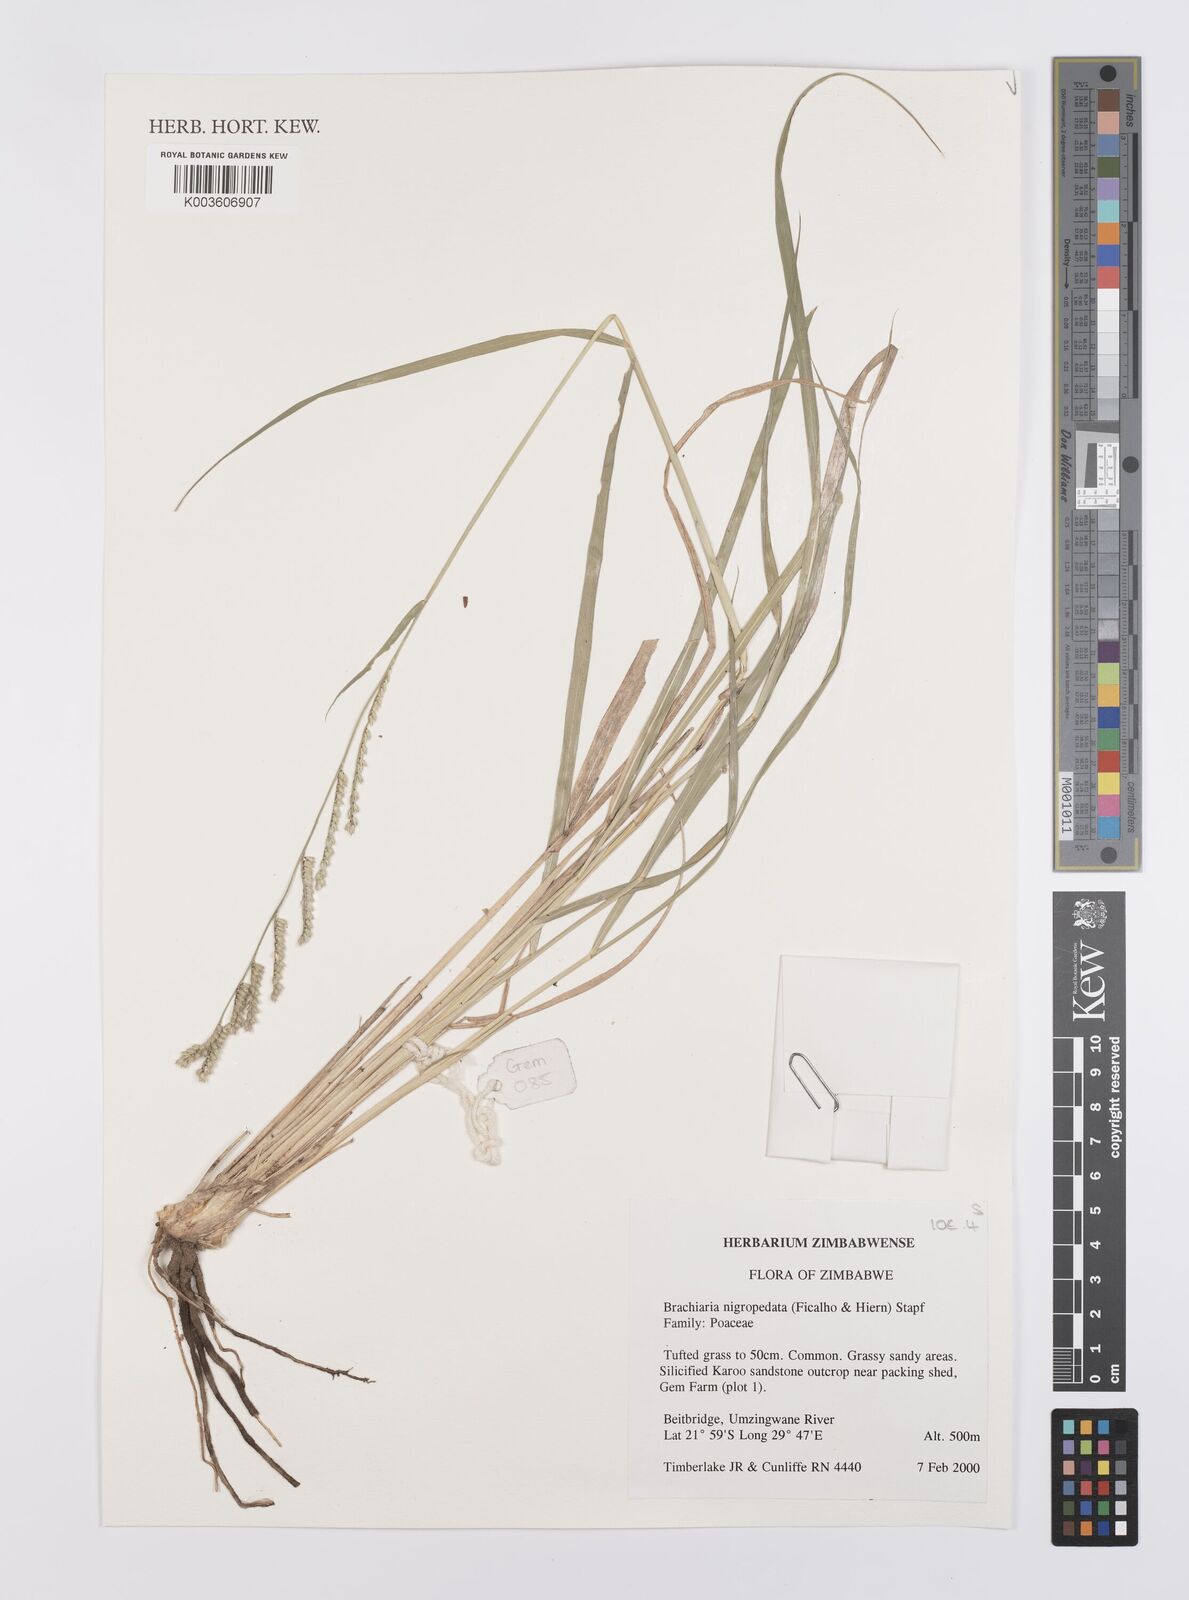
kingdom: Plantae
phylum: Tracheophyta
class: Liliopsida
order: Poales
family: Poaceae
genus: Urochloa
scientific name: Urochloa nigropedata
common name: Spotted signal grass
